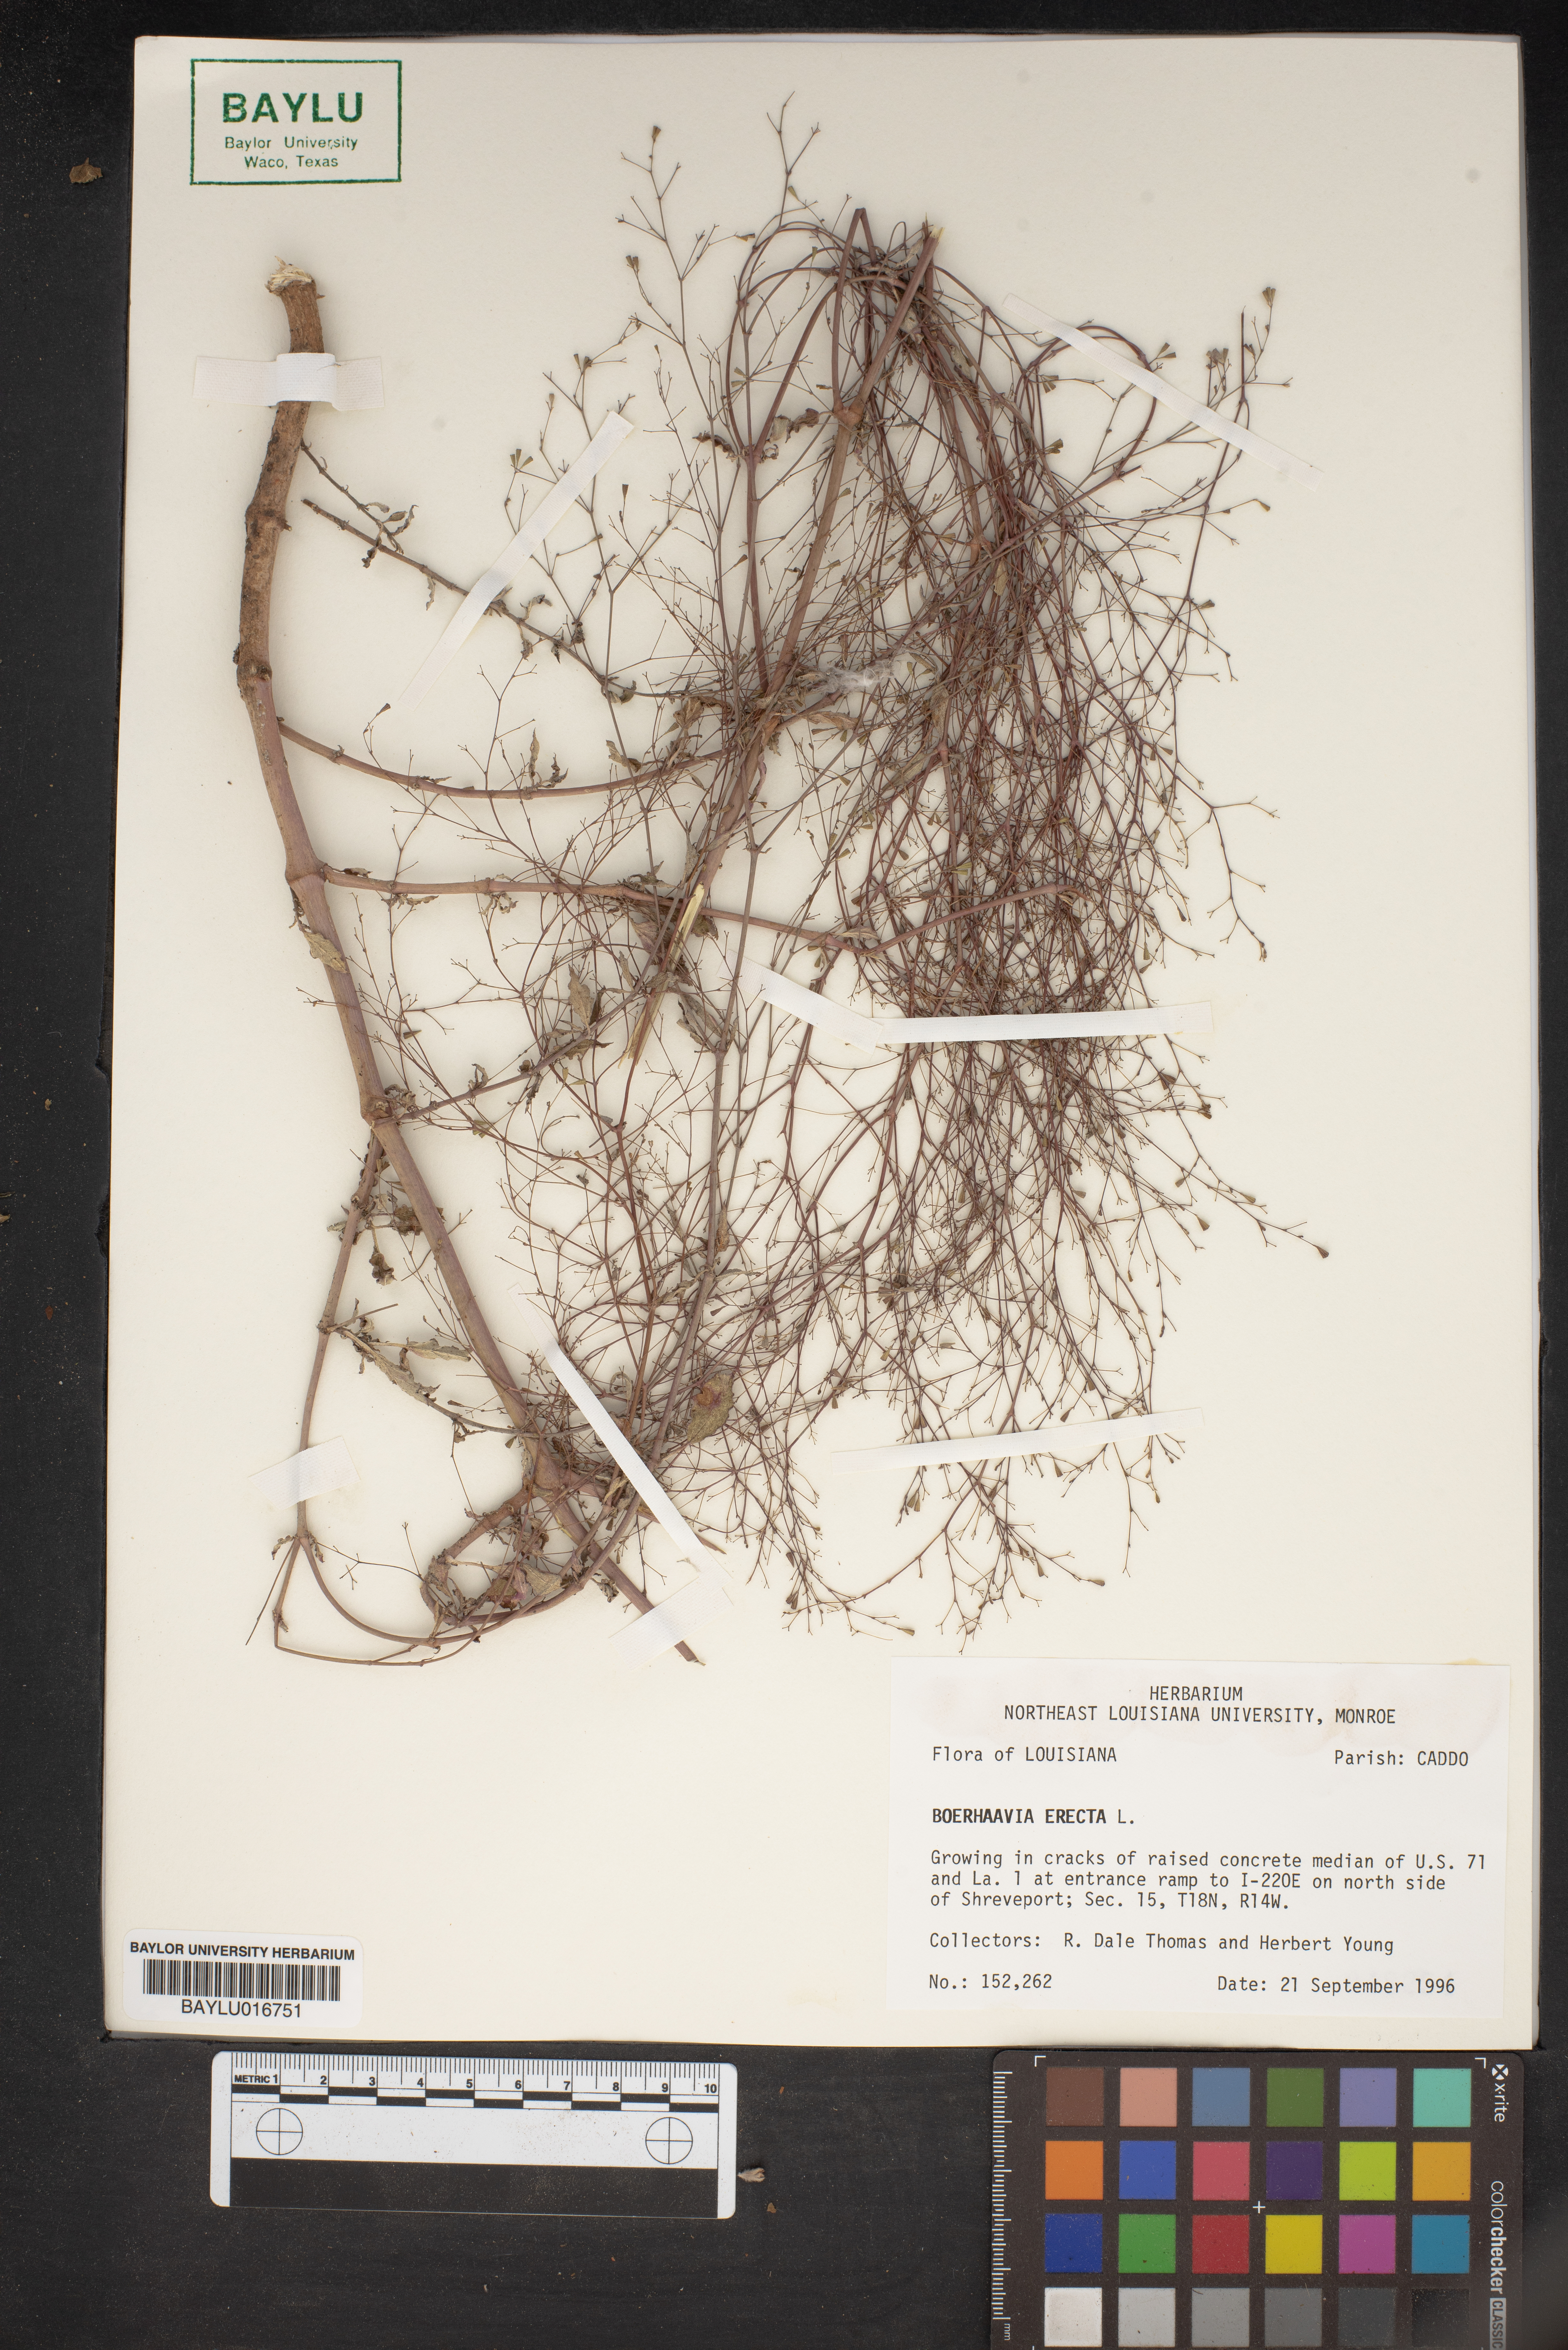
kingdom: Plantae
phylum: Tracheophyta
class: Magnoliopsida
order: Caryophyllales
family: Nyctaginaceae
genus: Boerhavia
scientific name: Boerhavia erecta
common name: Erect spiderling
